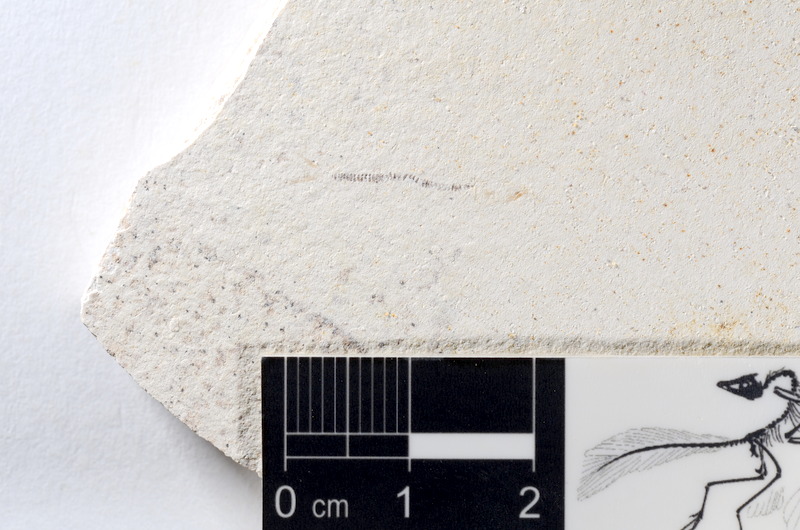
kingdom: Animalia
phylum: Chordata
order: Salmoniformes
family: Orthogonikleithridae
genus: Orthogonikleithrus
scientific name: Orthogonikleithrus hoelli
